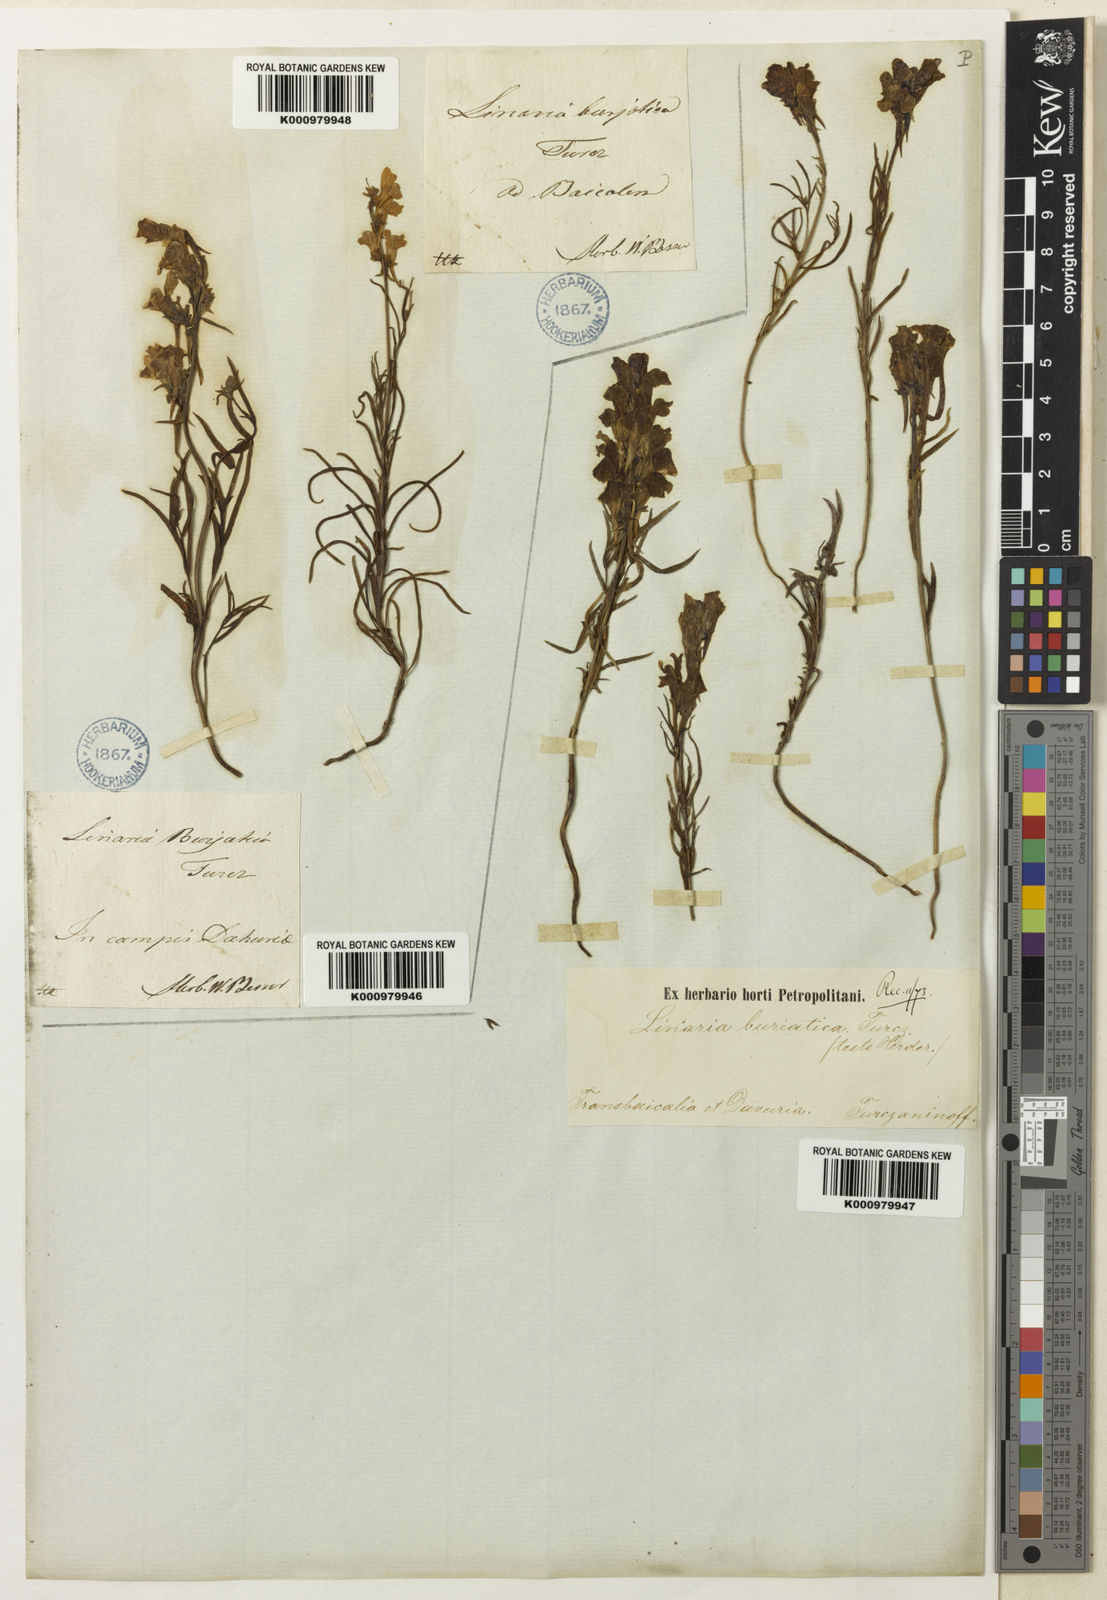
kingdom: Plantae
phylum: Tracheophyta
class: Magnoliopsida
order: Lamiales
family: Plantaginaceae
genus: Linaria
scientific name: Linaria
